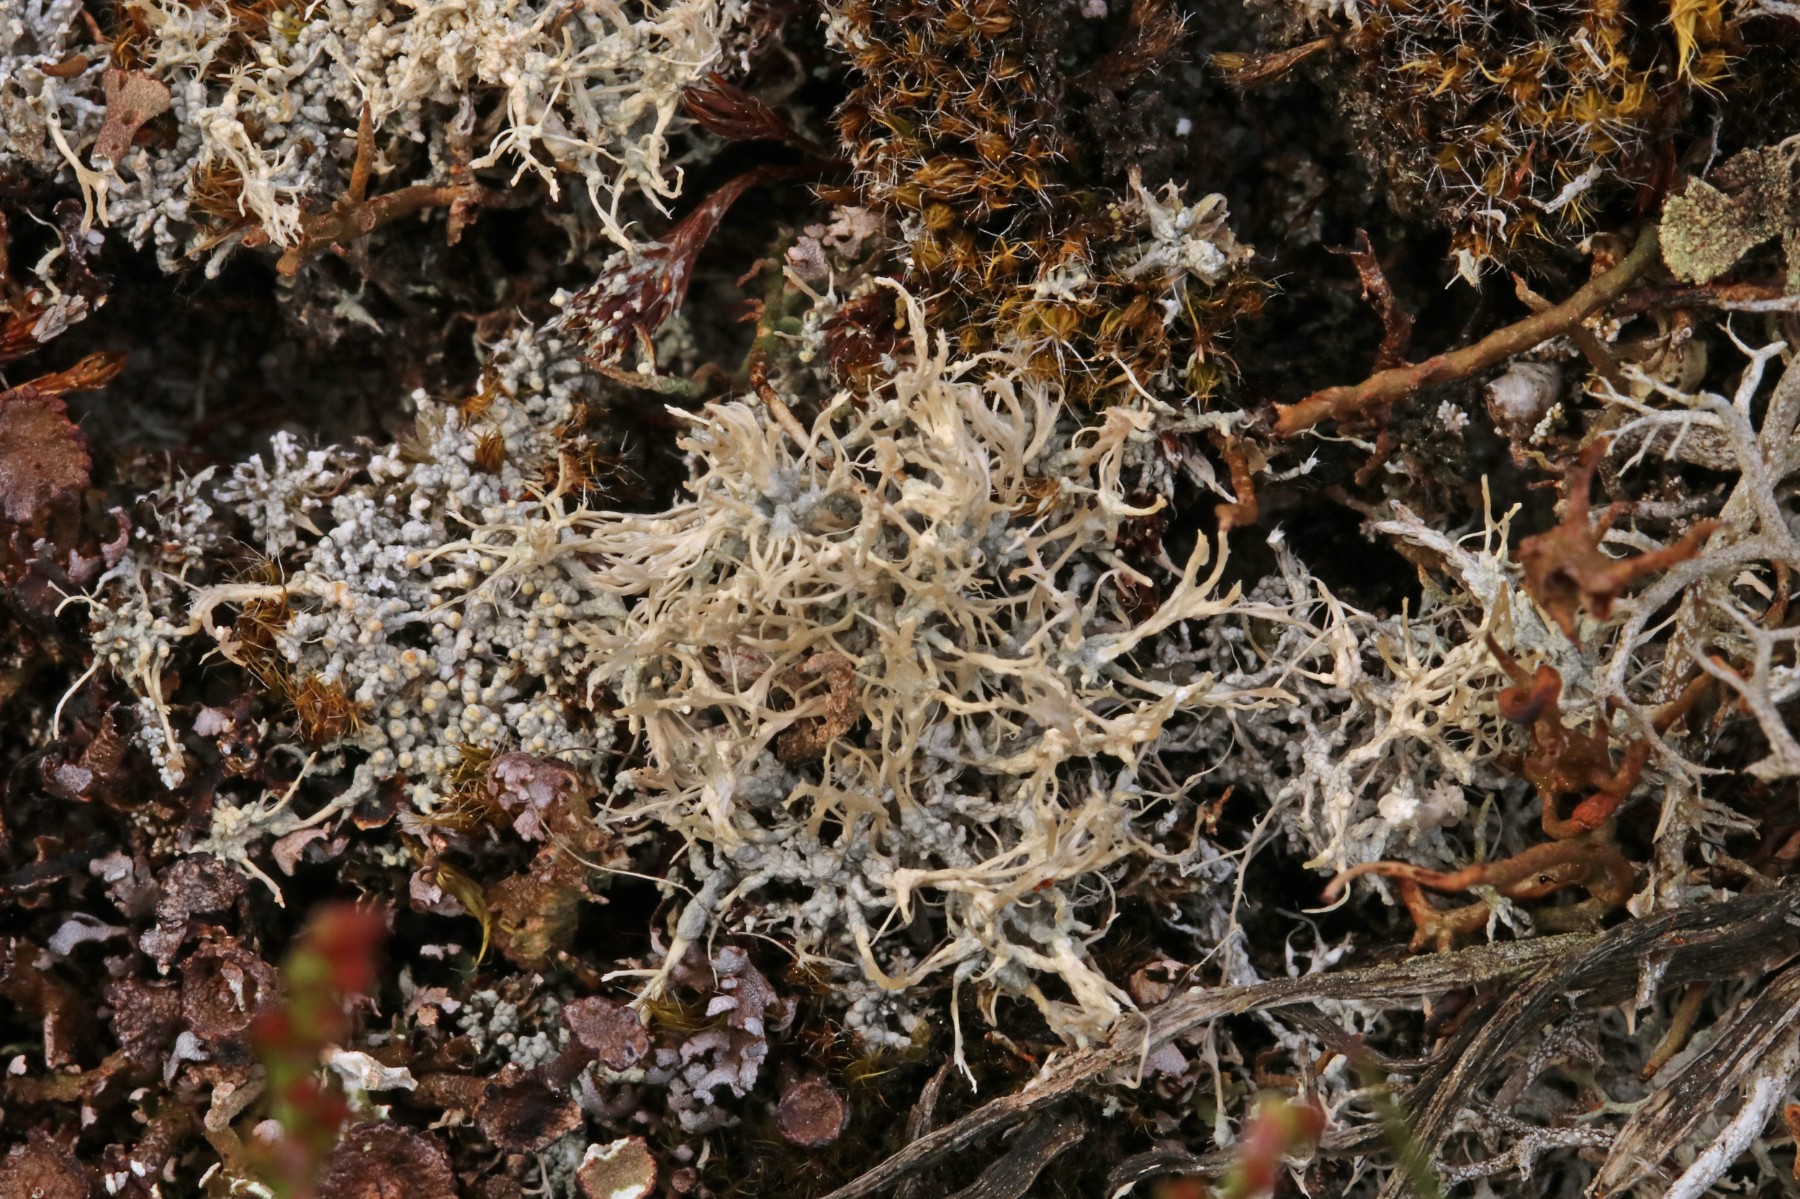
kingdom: Fungi
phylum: Ascomycota
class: Lecanoromycetes
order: Pertusariales
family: Ochrolechiaceae
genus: Ochrolechia
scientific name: Ochrolechia frigida
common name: fjeld-blegskivelav
